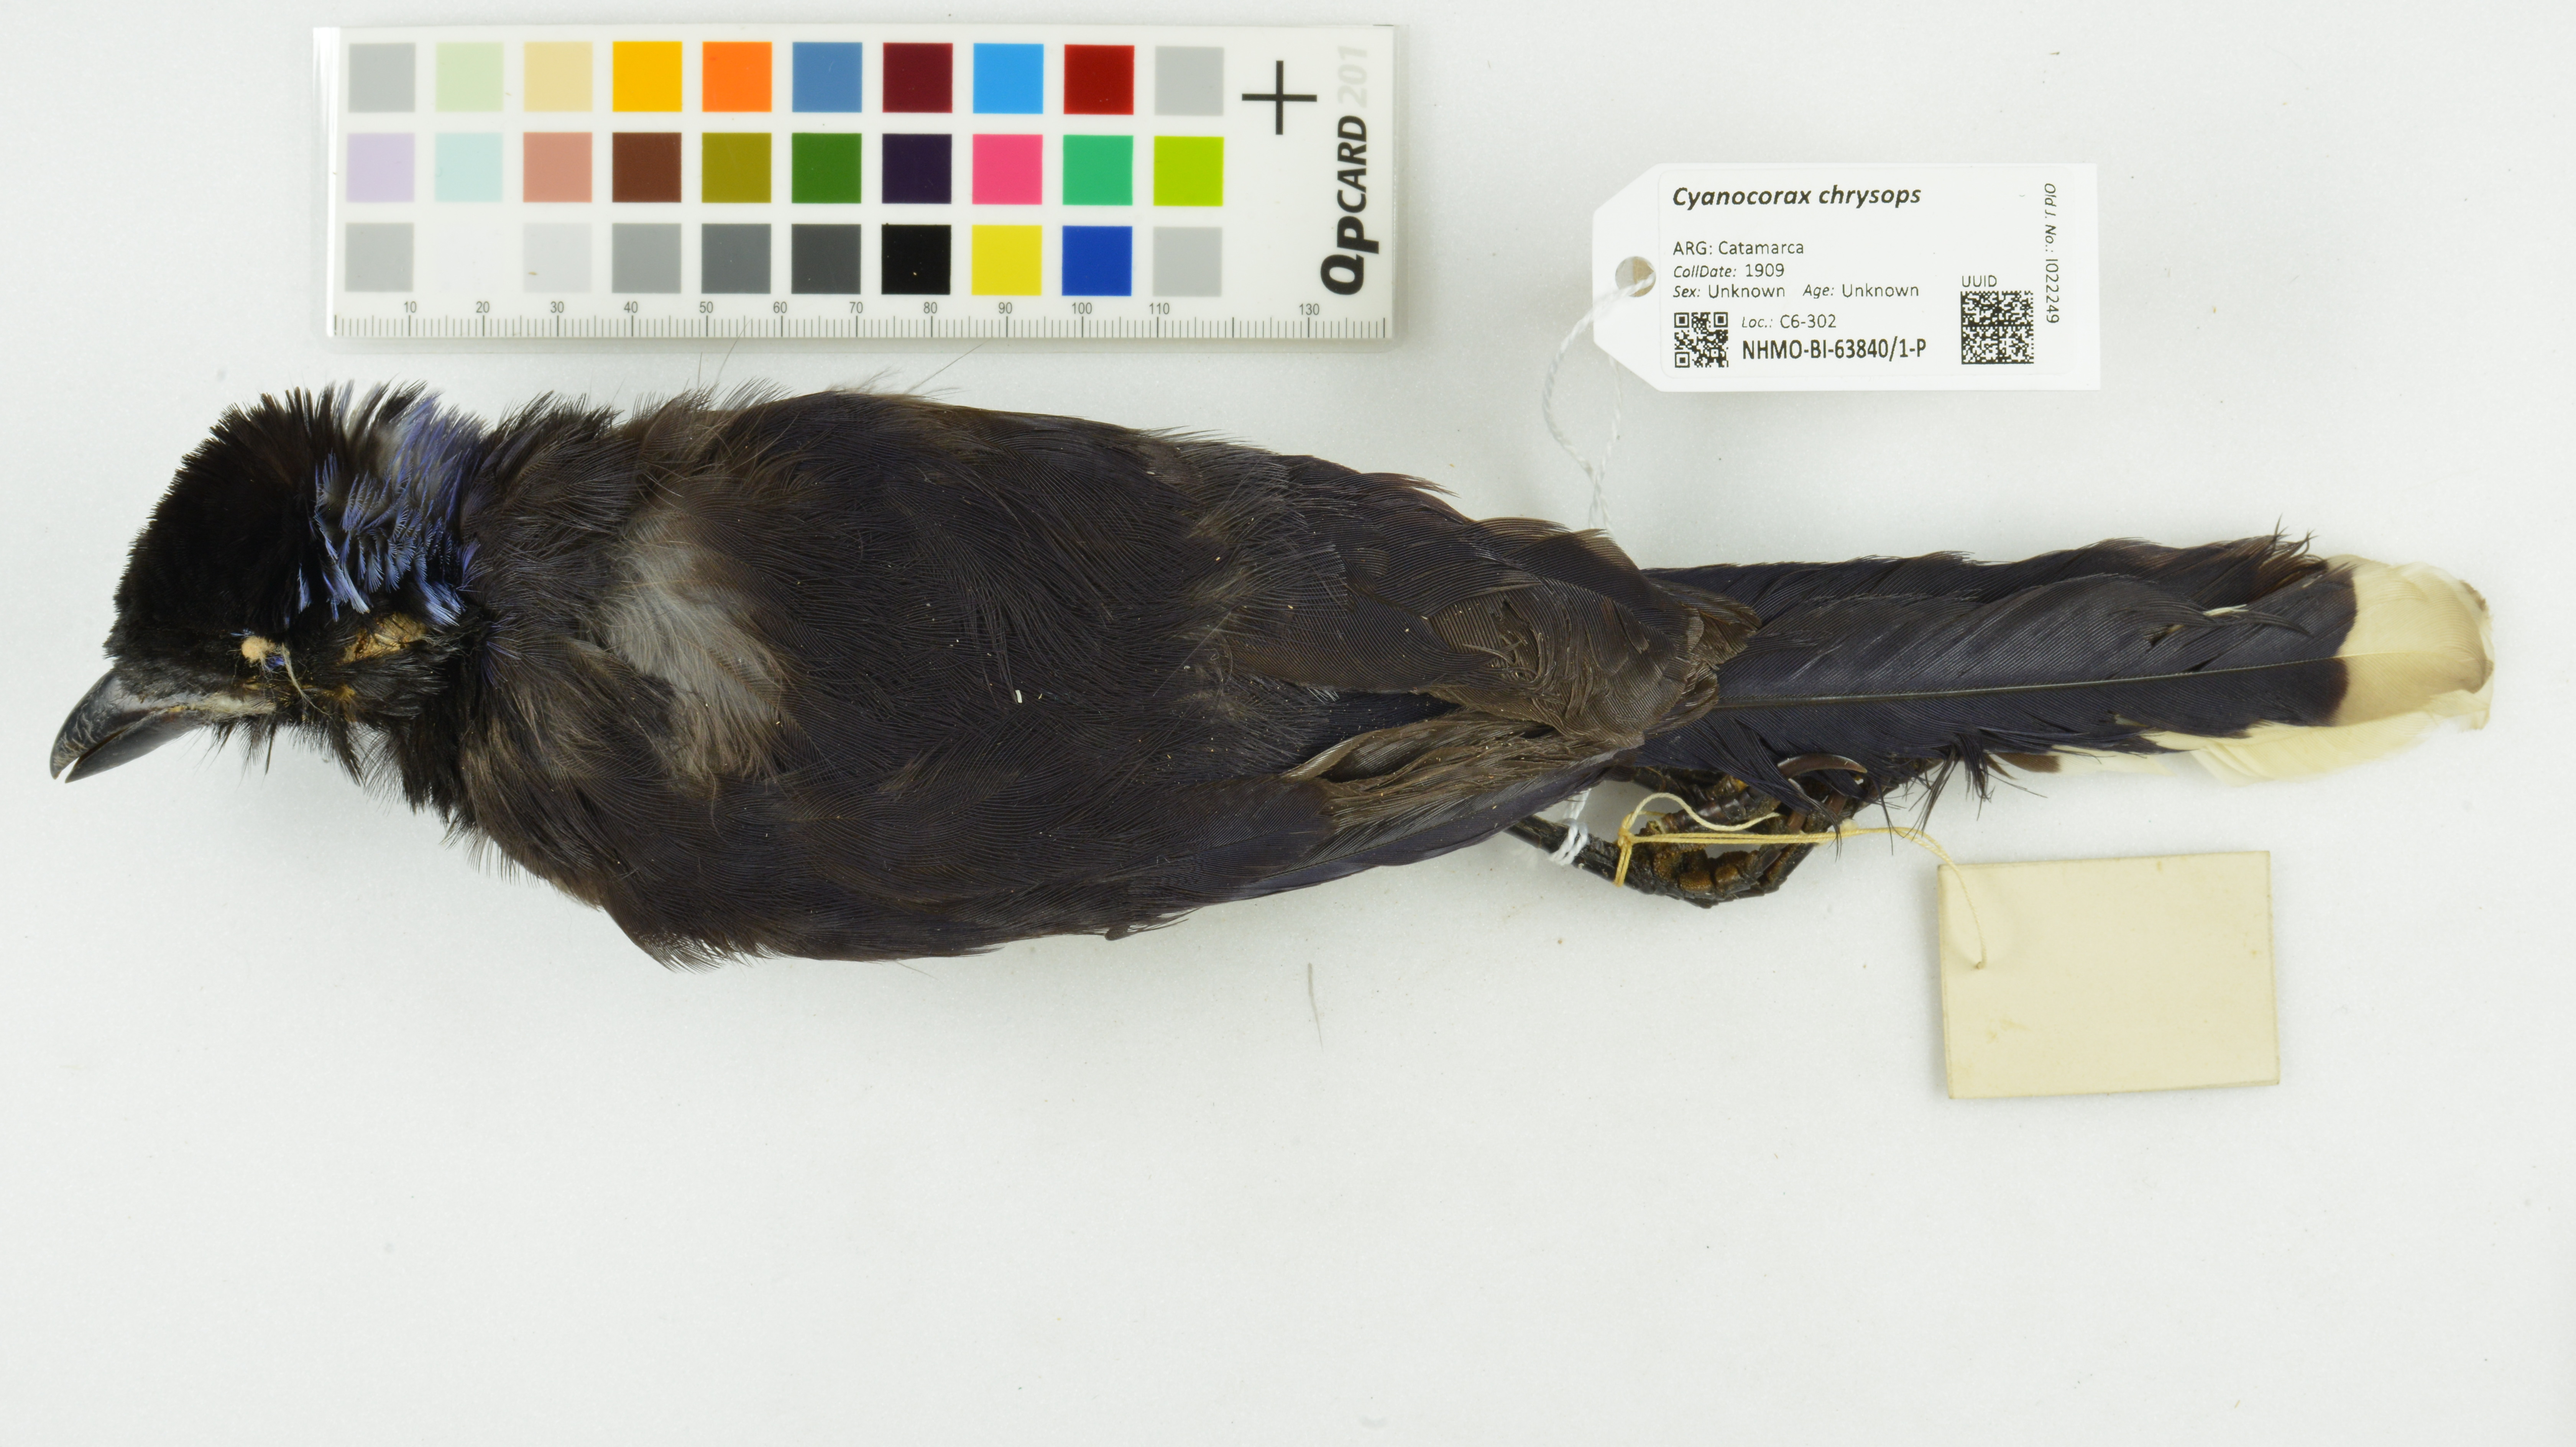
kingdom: Animalia
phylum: Chordata
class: Aves
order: Passeriformes
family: Corvidae
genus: Cyanocorax
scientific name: Cyanocorax chrysops
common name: Plush-crested jay
